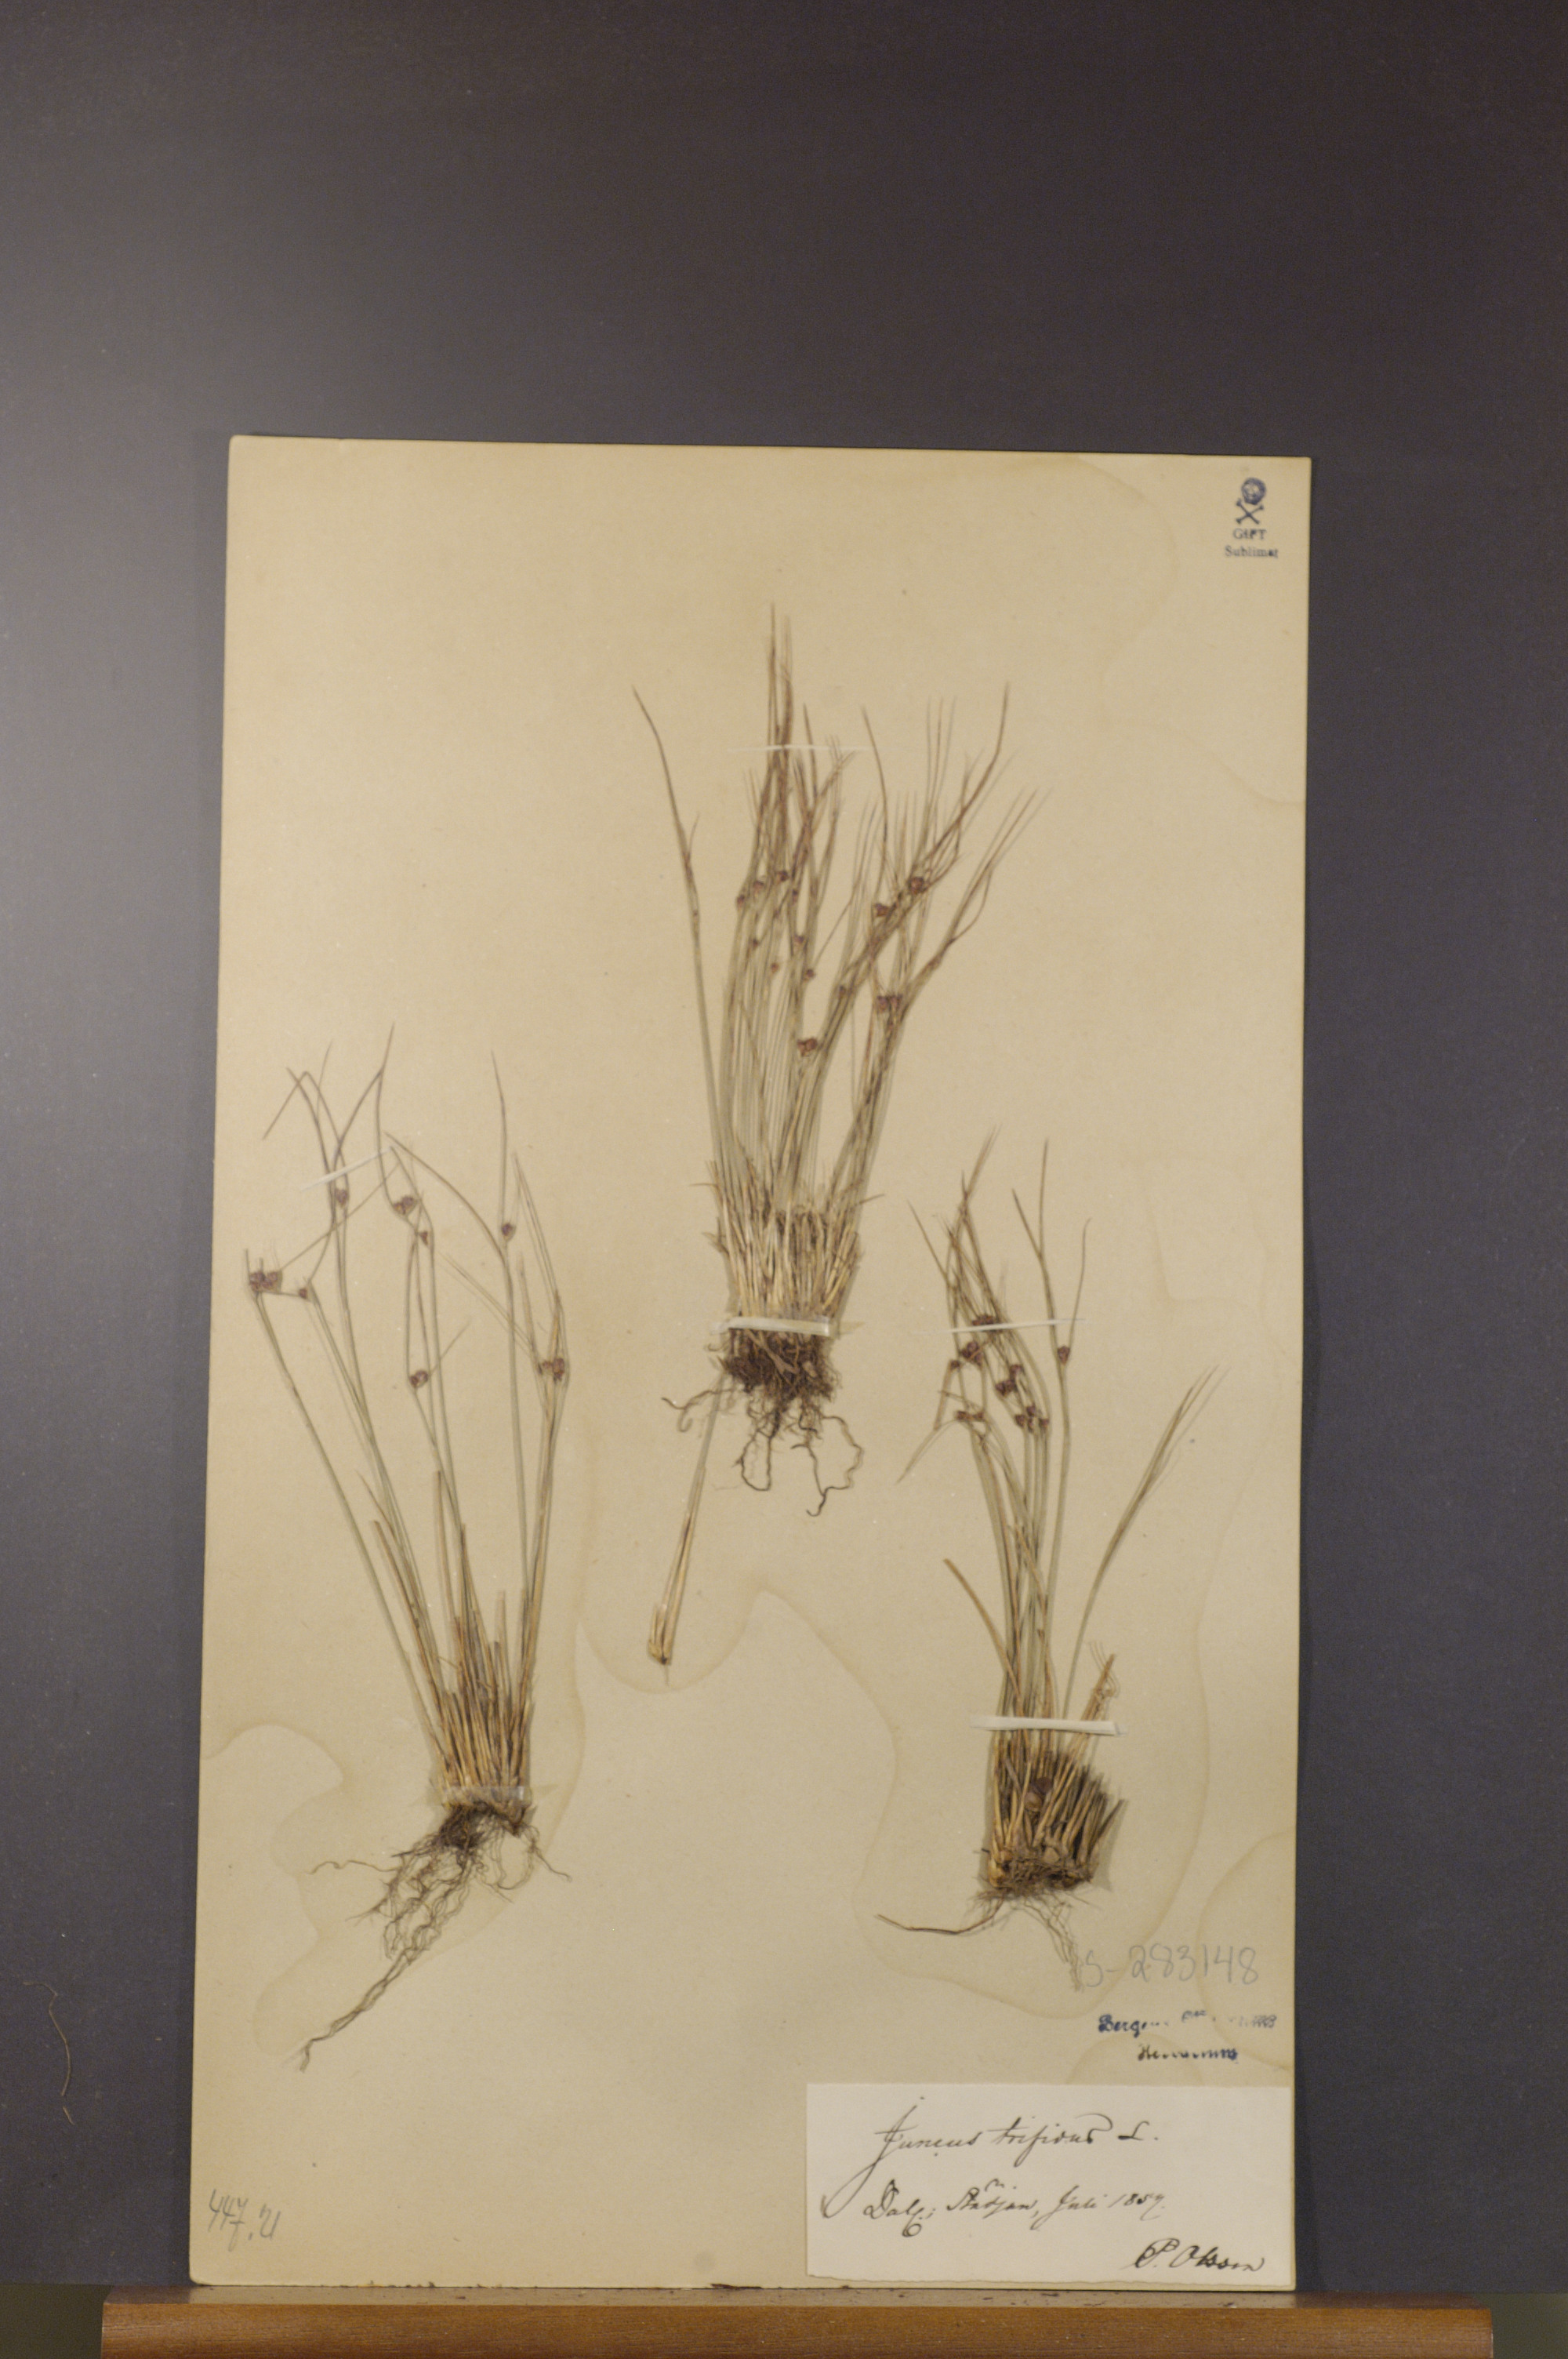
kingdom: Plantae
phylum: Tracheophyta
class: Liliopsida
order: Poales
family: Juncaceae
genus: Oreojuncus
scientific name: Oreojuncus trifidus
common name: Highland rush
